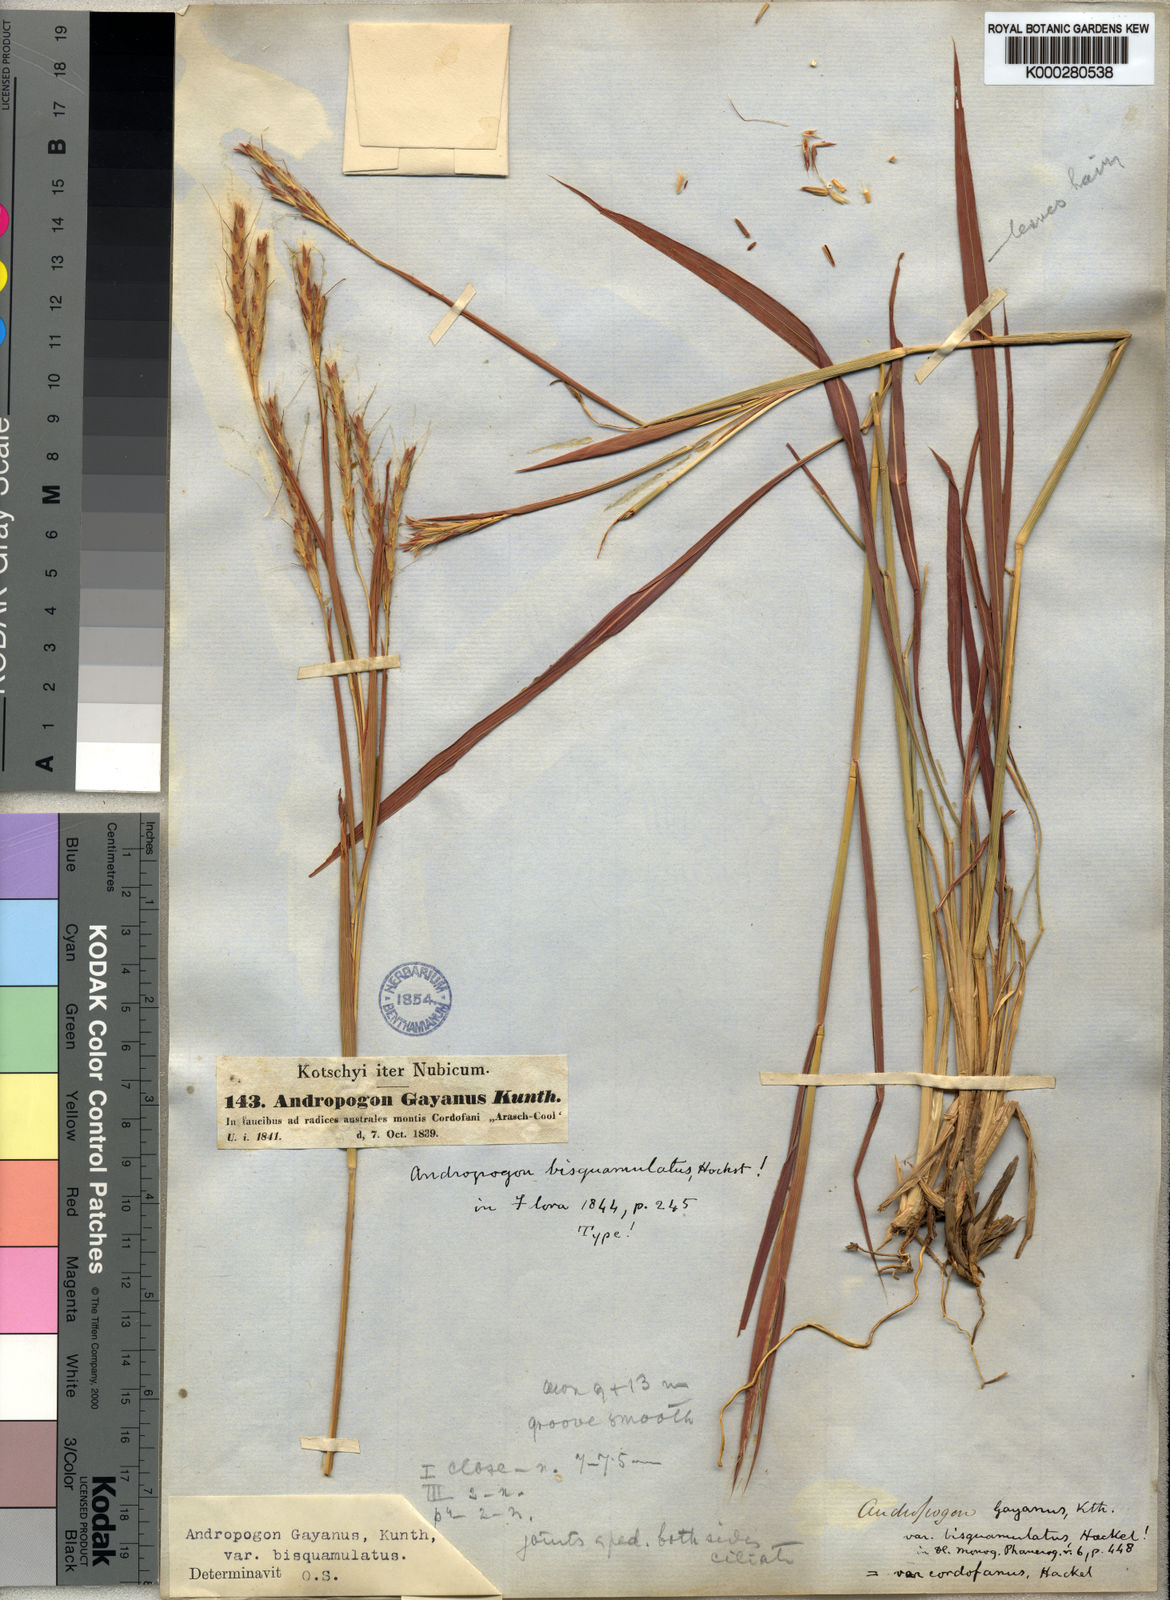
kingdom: Plantae
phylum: Tracheophyta
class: Liliopsida
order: Poales
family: Poaceae
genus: Andropogon
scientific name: Andropogon gayanus
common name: Tambuki grass
